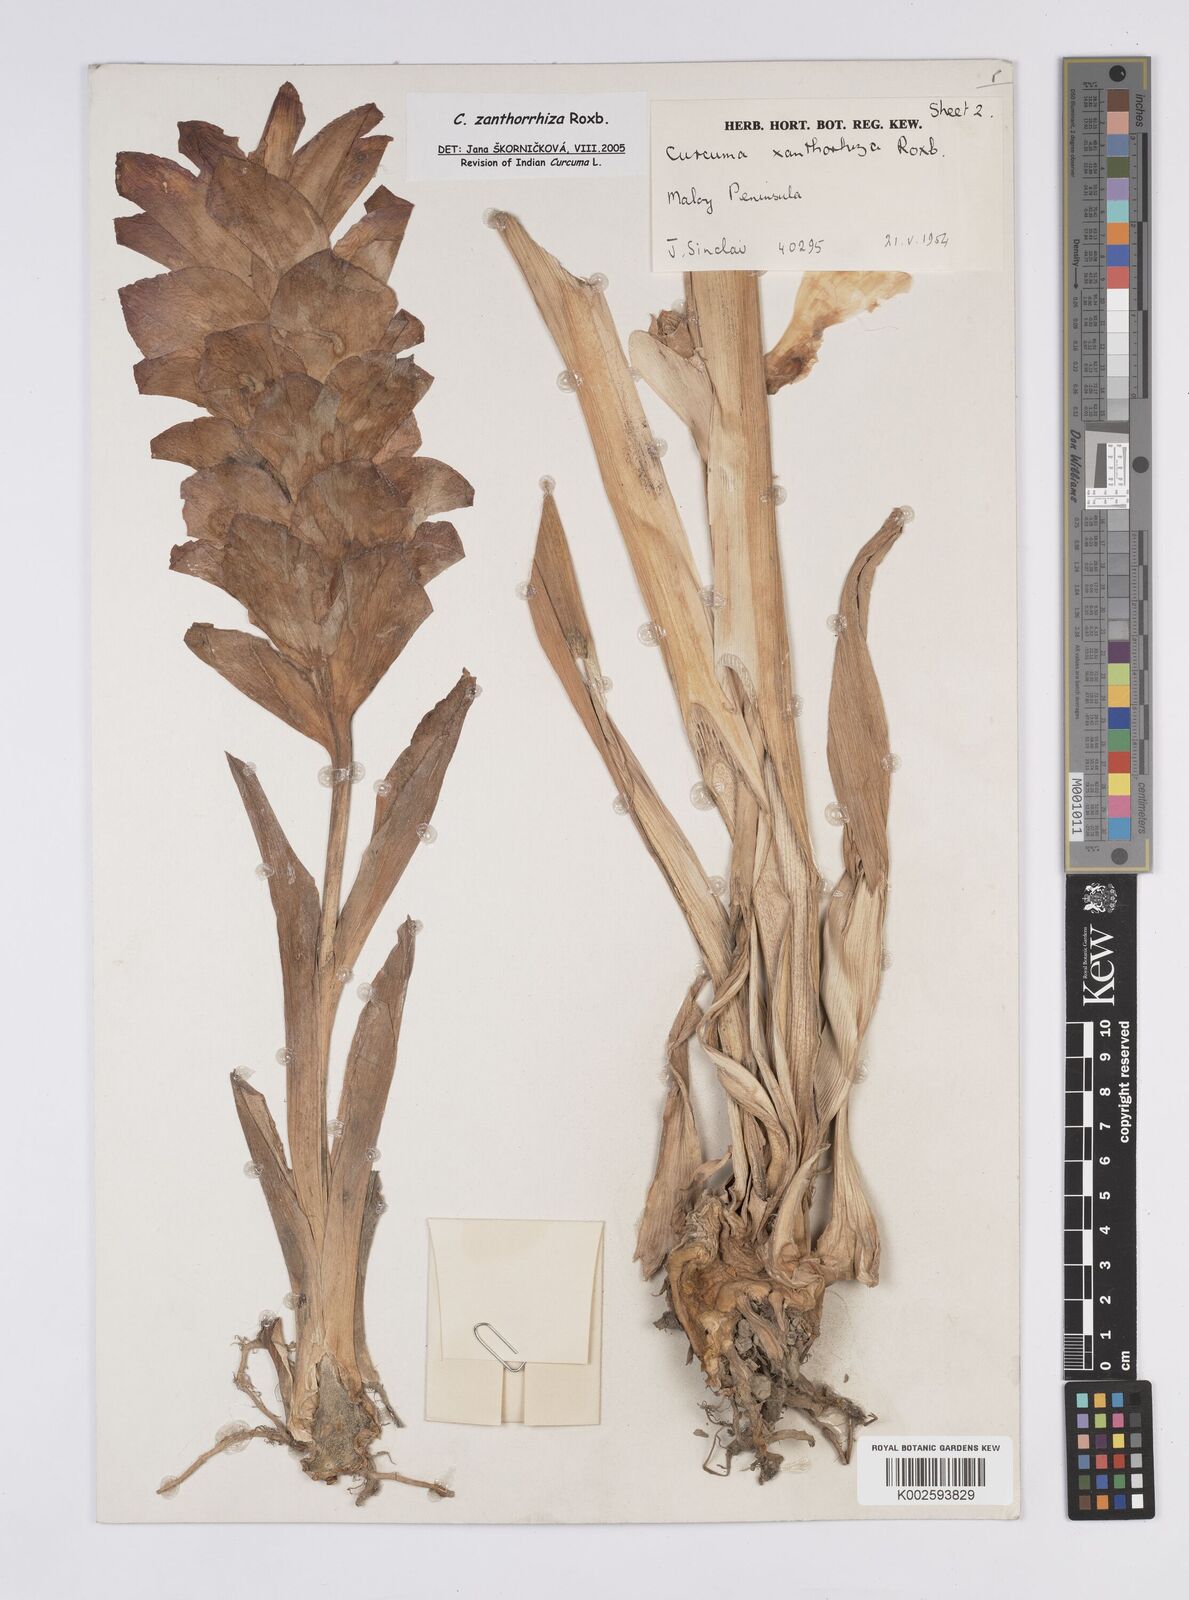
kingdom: Plantae
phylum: Tracheophyta
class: Liliopsida
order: Zingiberales
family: Zingiberaceae
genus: Curcuma
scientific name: Curcuma zanthorrhiza
